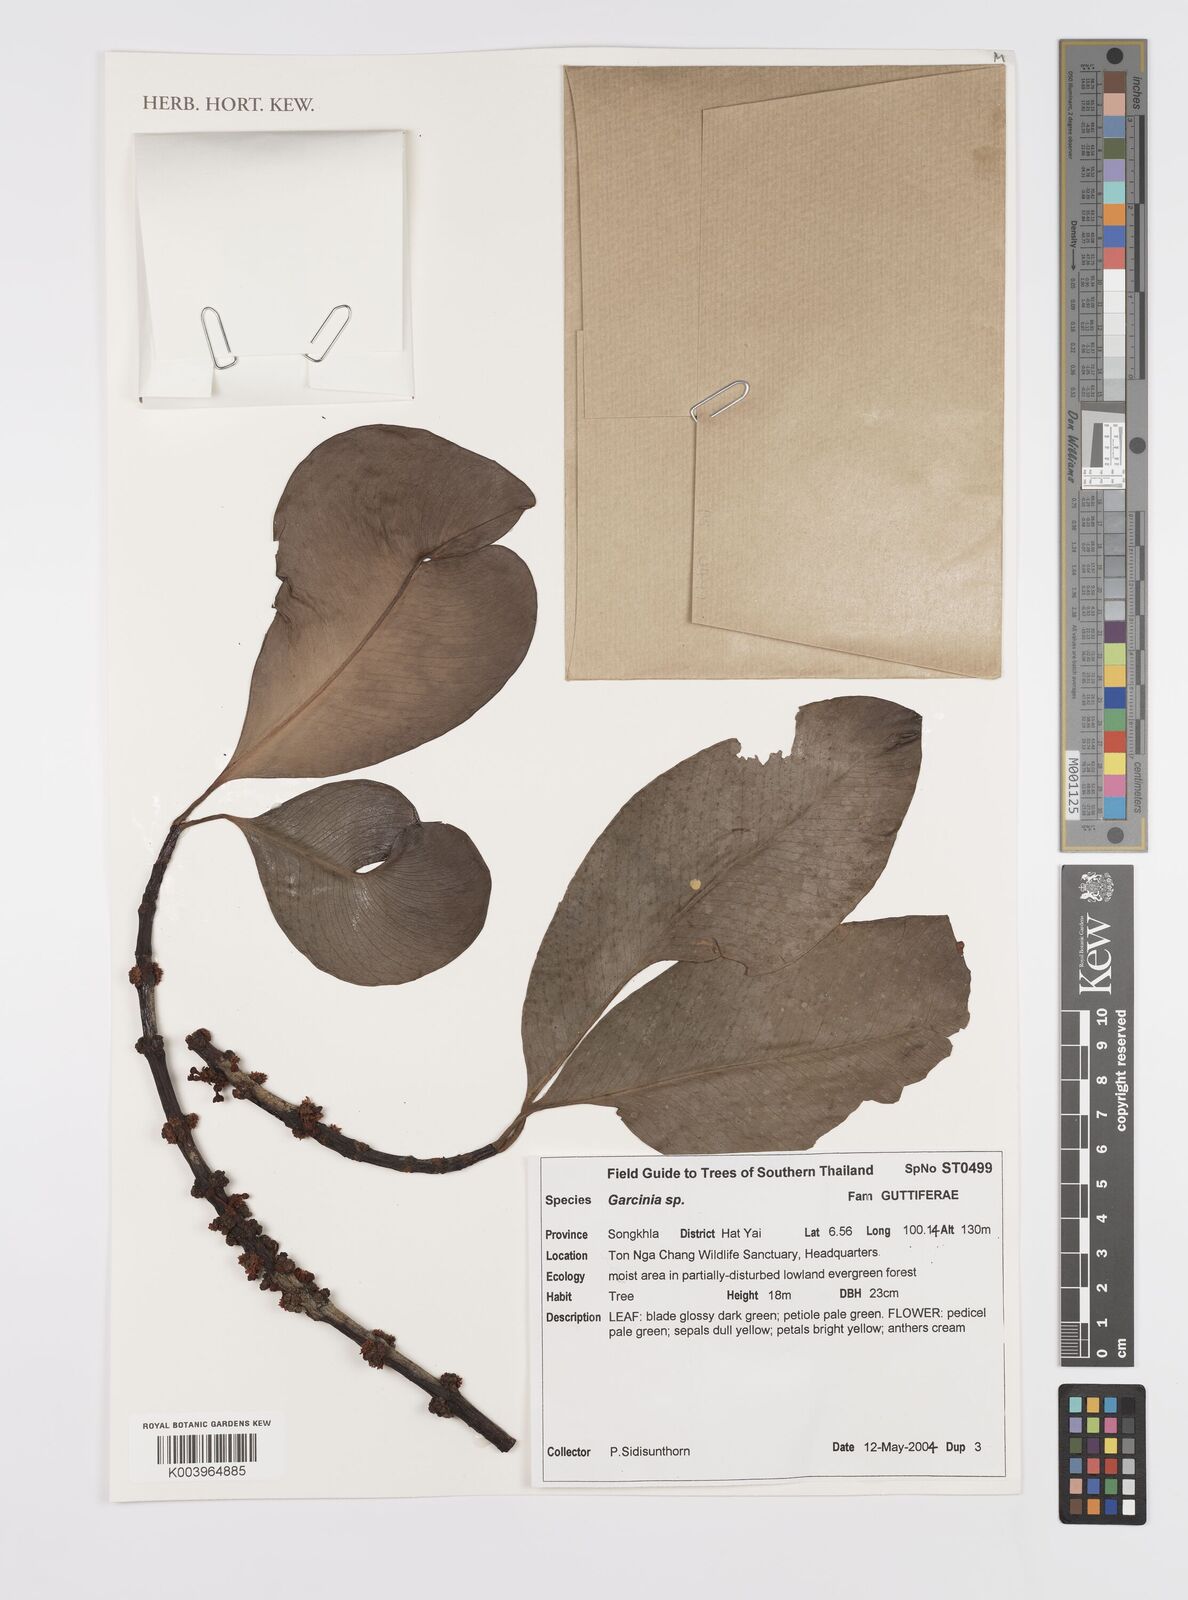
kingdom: Plantae
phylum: Tracheophyta
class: Magnoliopsida
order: Malpighiales
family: Clusiaceae
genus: Garcinia
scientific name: Garcinia
